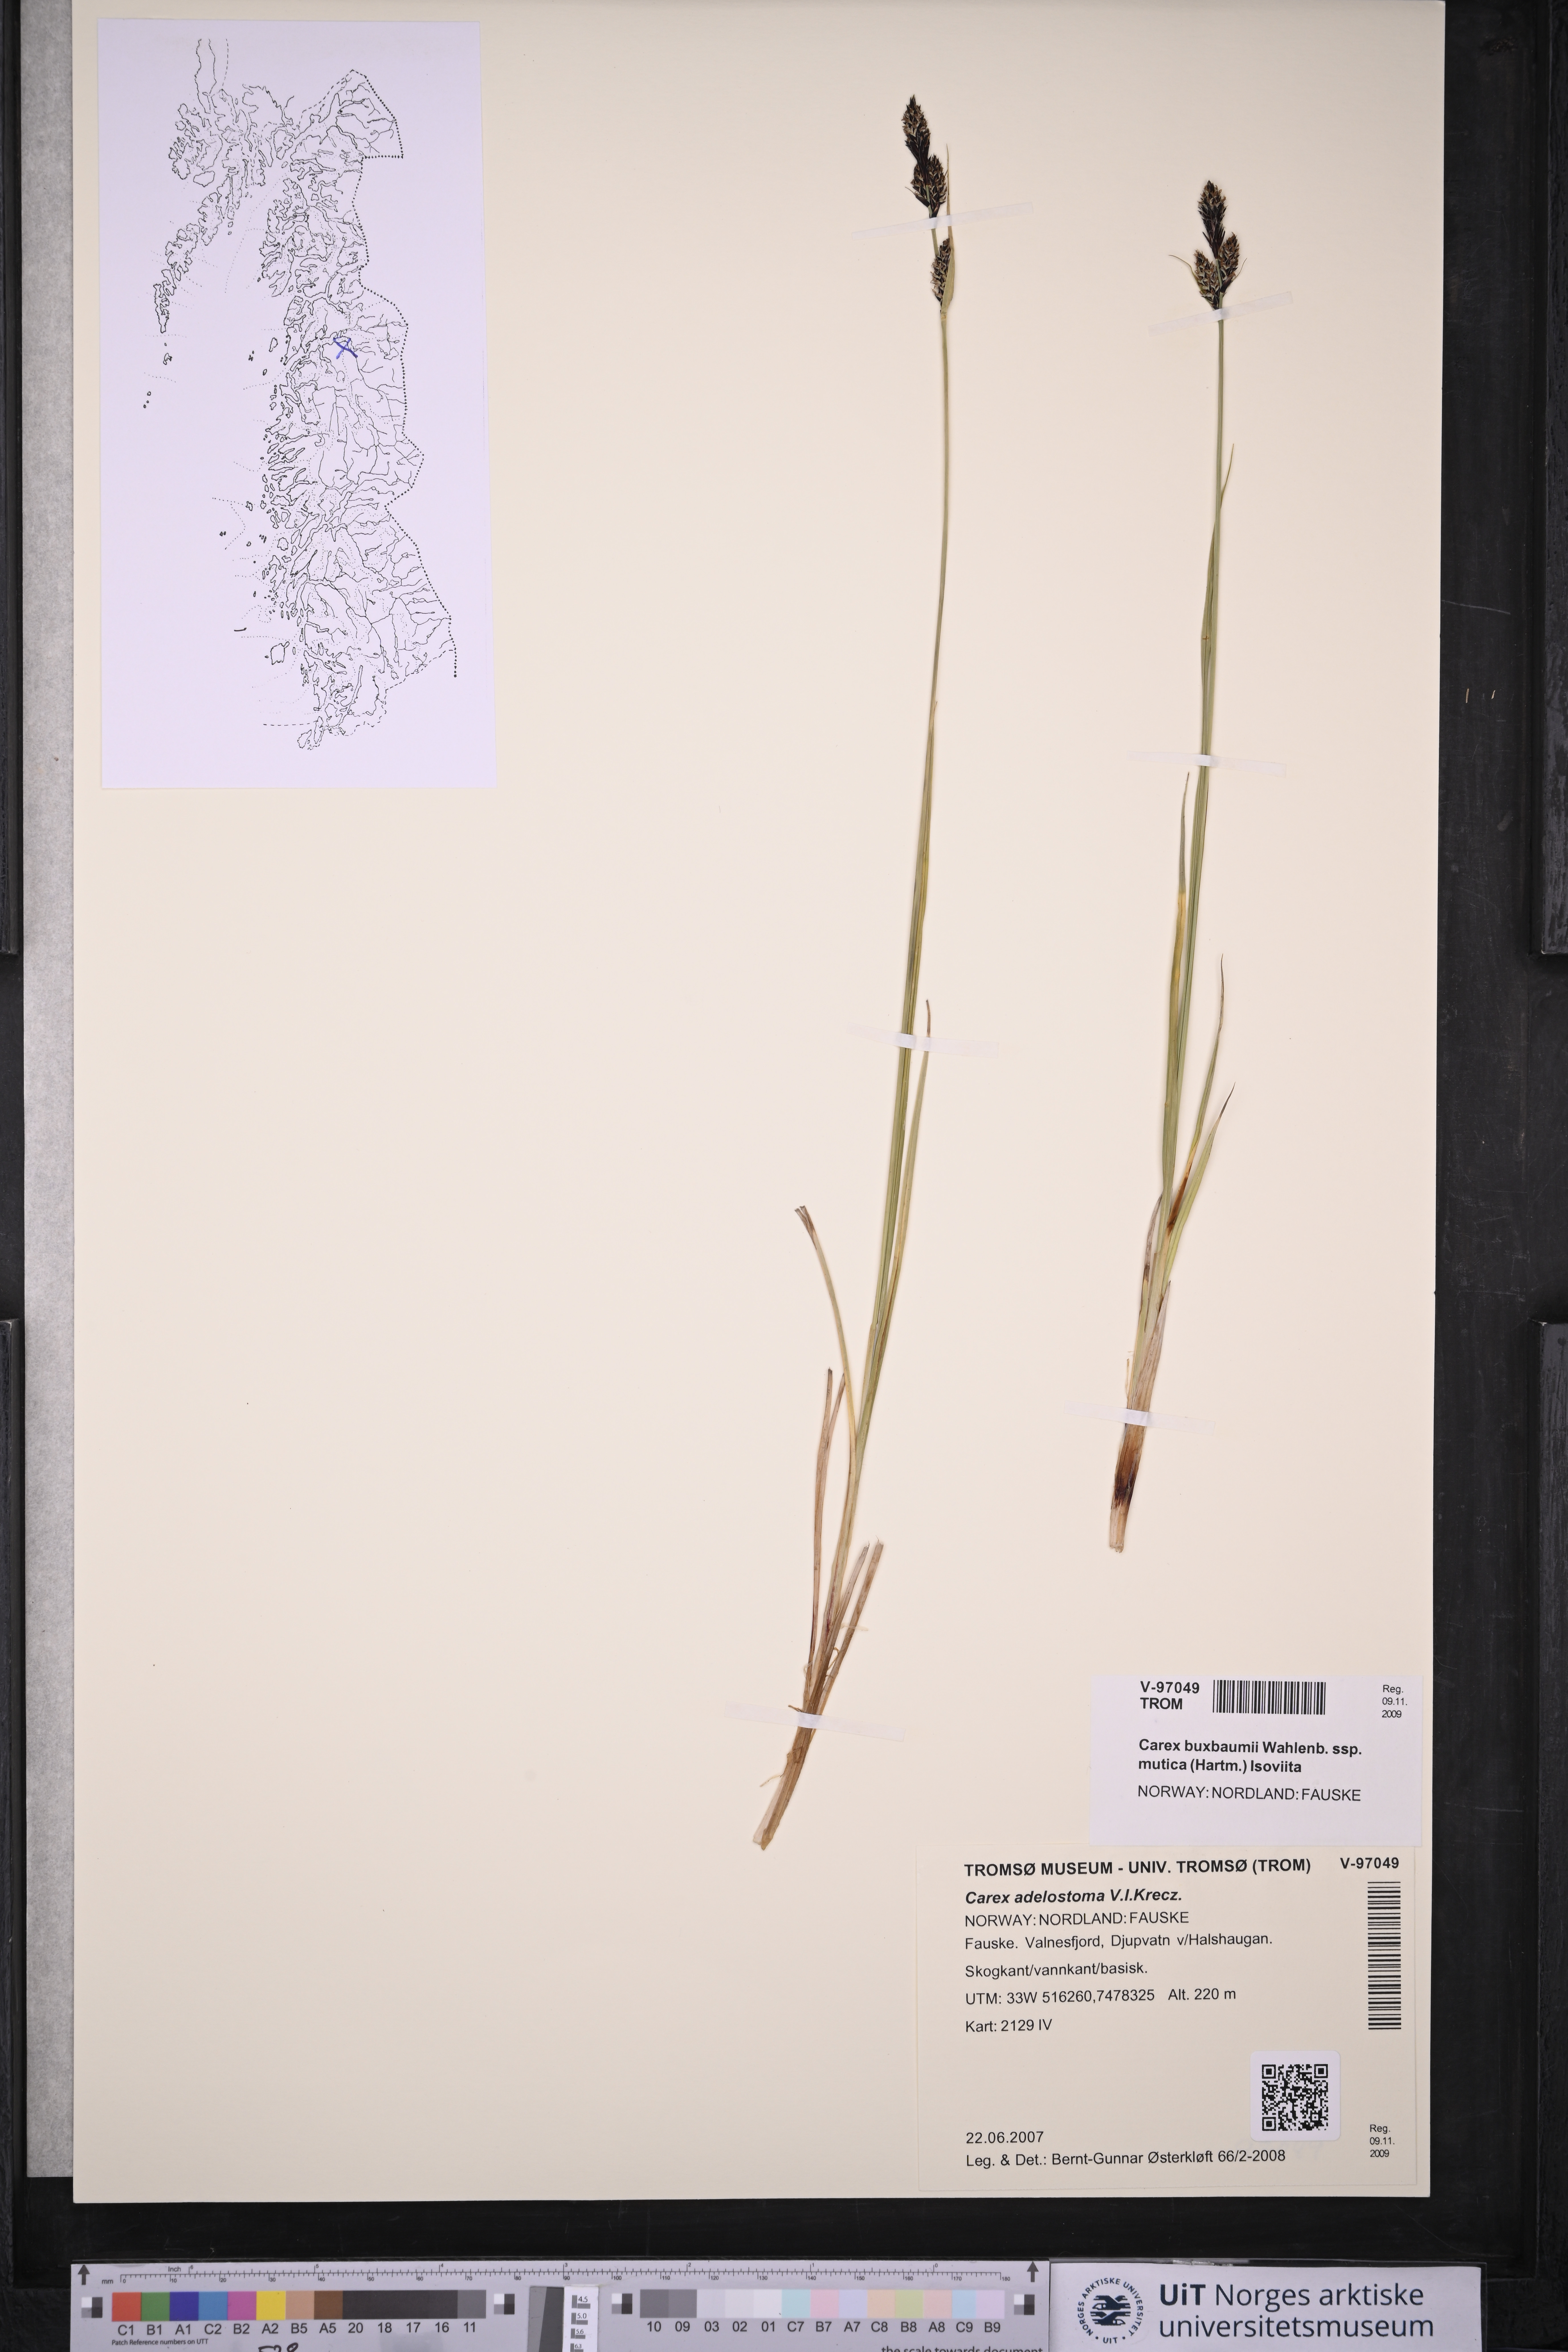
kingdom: Plantae
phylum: Tracheophyta
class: Liliopsida
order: Poales
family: Cyperaceae
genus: Carex
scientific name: Carex adelostoma
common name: Circumpolar sedge
